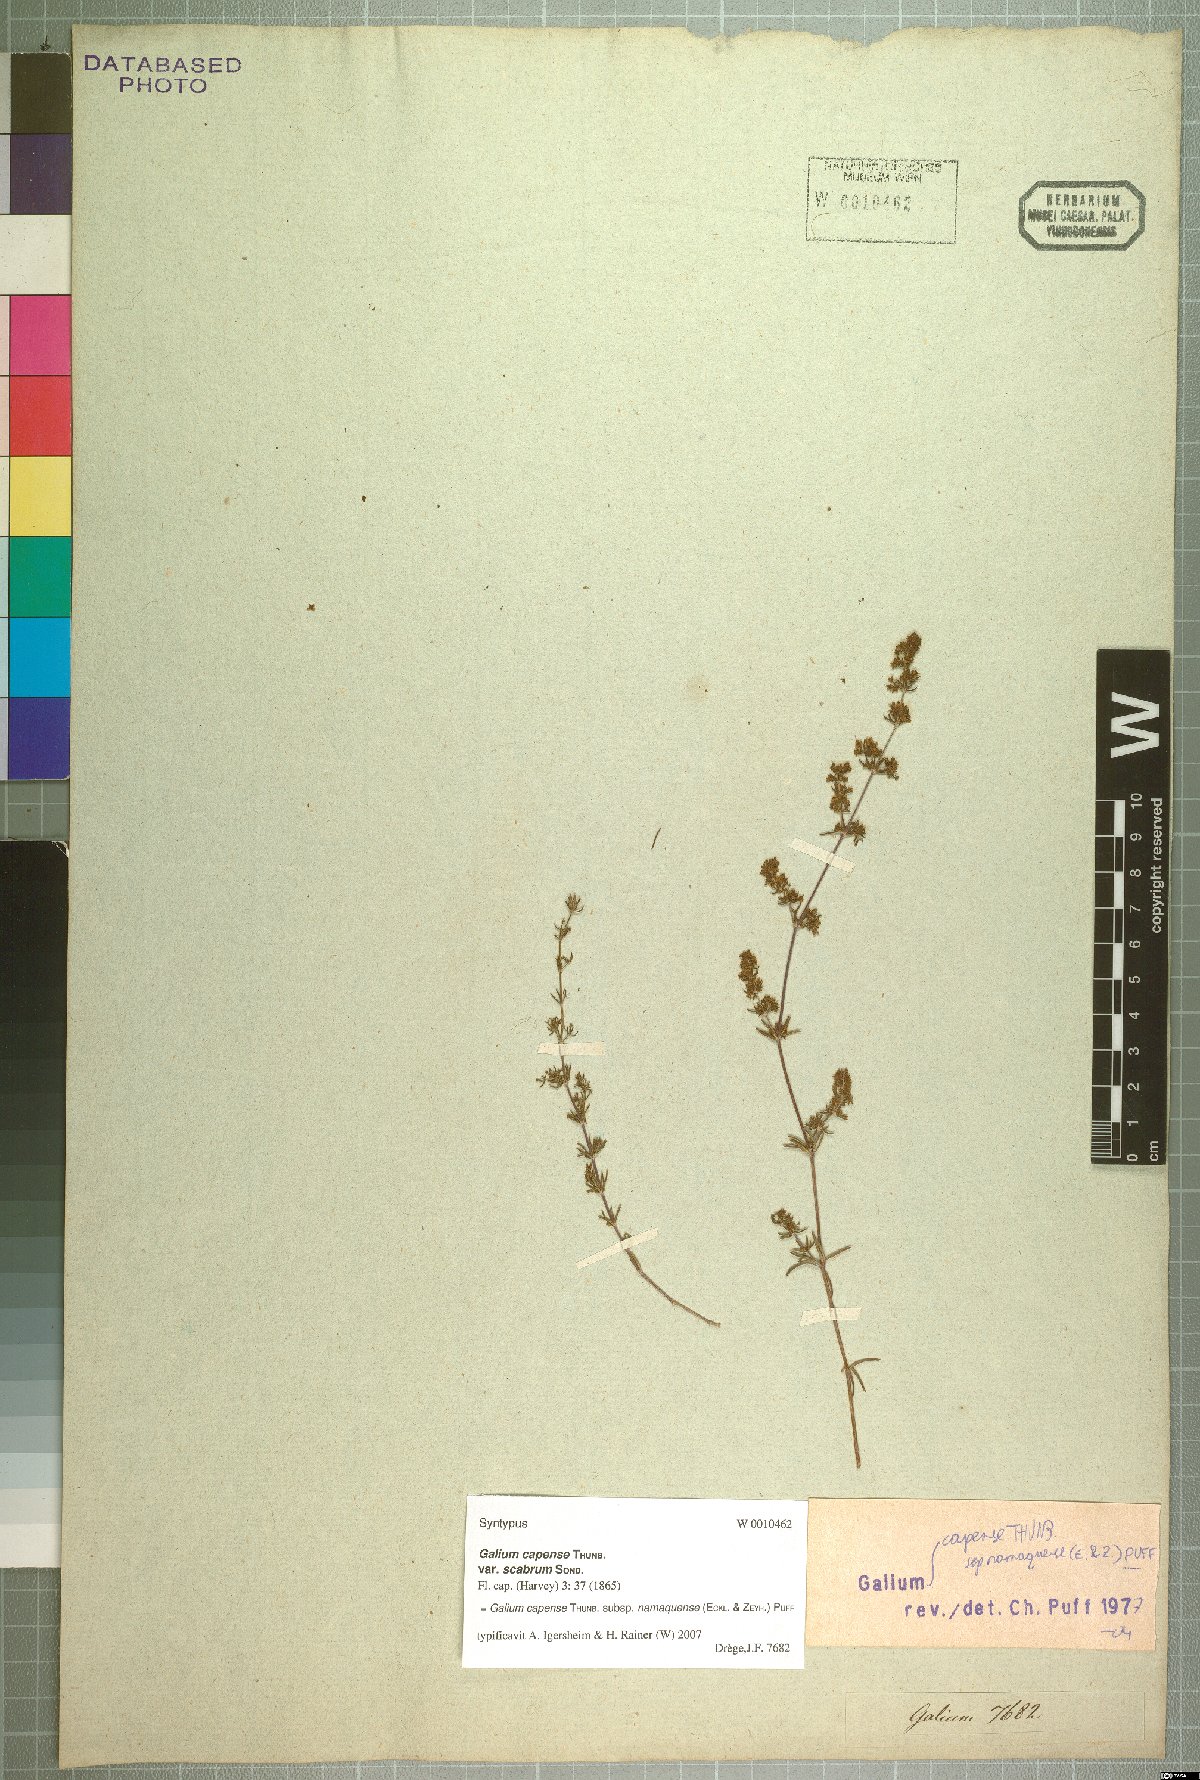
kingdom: Plantae
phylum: Tracheophyta
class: Magnoliopsida
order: Gentianales
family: Rubiaceae
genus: Galium
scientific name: Galium capense
